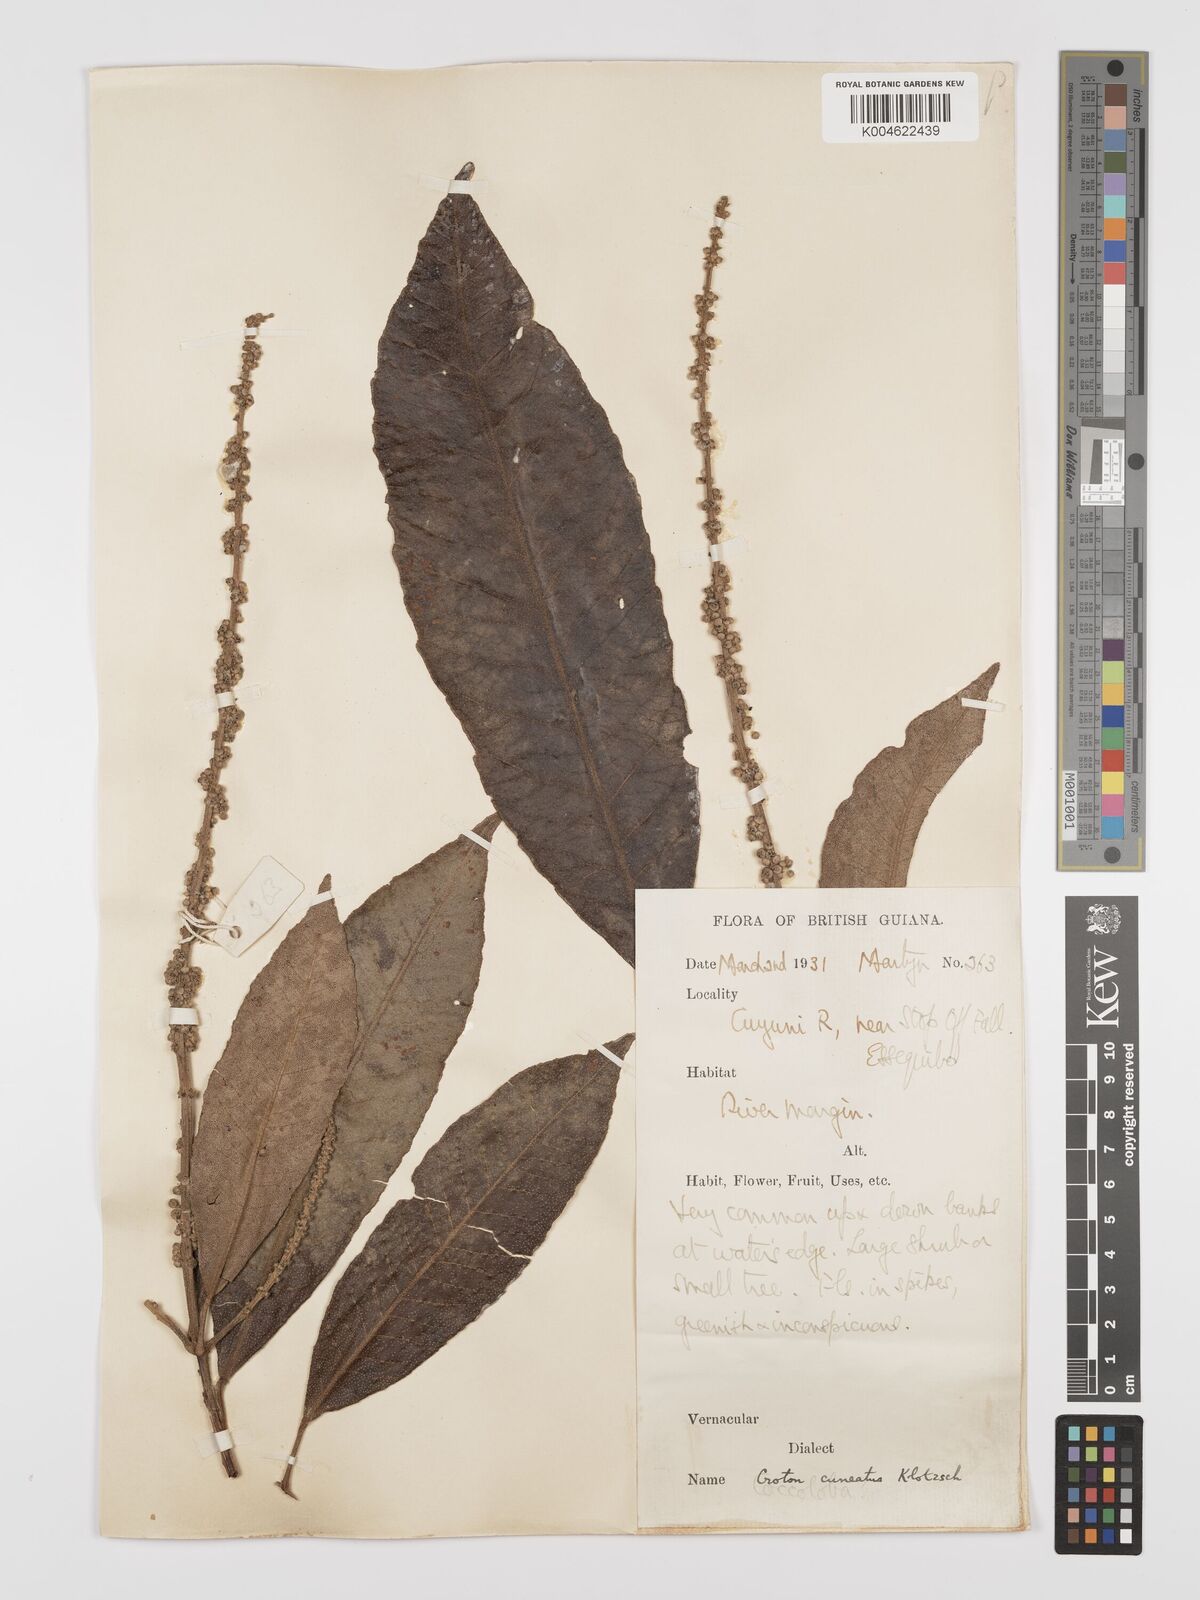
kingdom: Plantae
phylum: Tracheophyta
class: Magnoliopsida
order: Malpighiales
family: Euphorbiaceae
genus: Croton
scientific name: Croton
